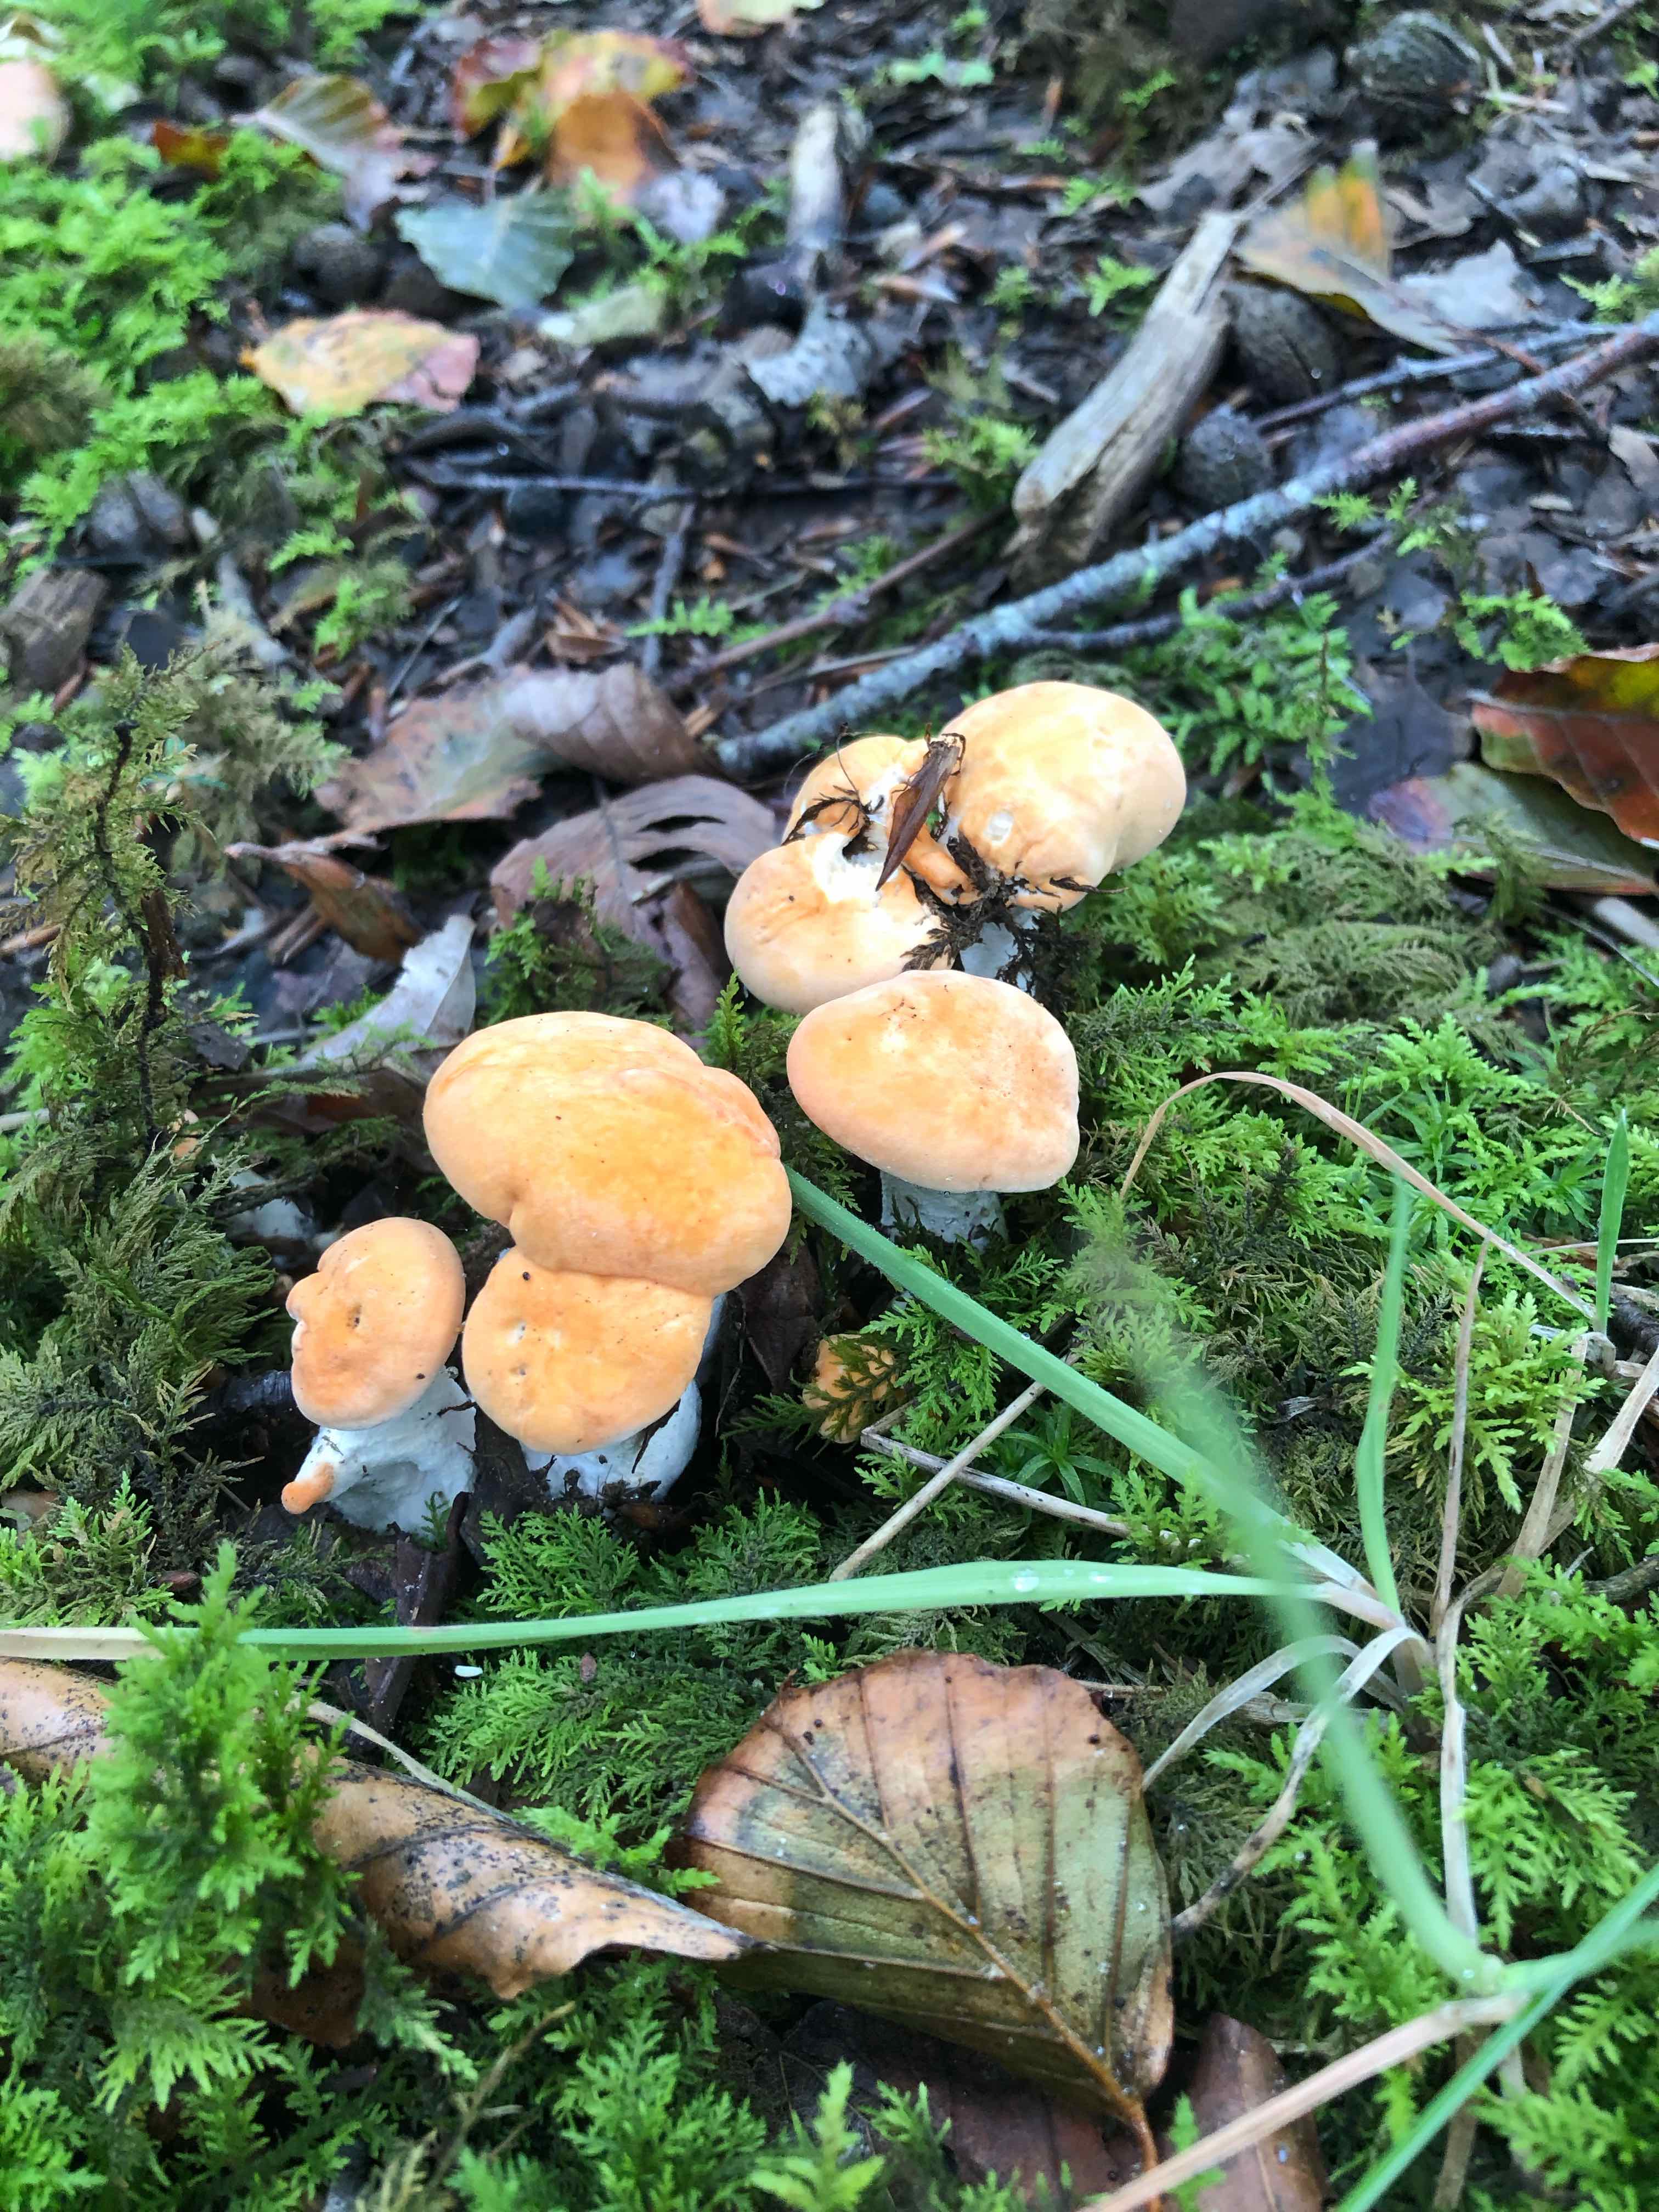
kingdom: Fungi
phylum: Basidiomycota
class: Agaricomycetes
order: Cantharellales
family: Hydnaceae
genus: Hydnum
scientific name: Hydnum rufescens
